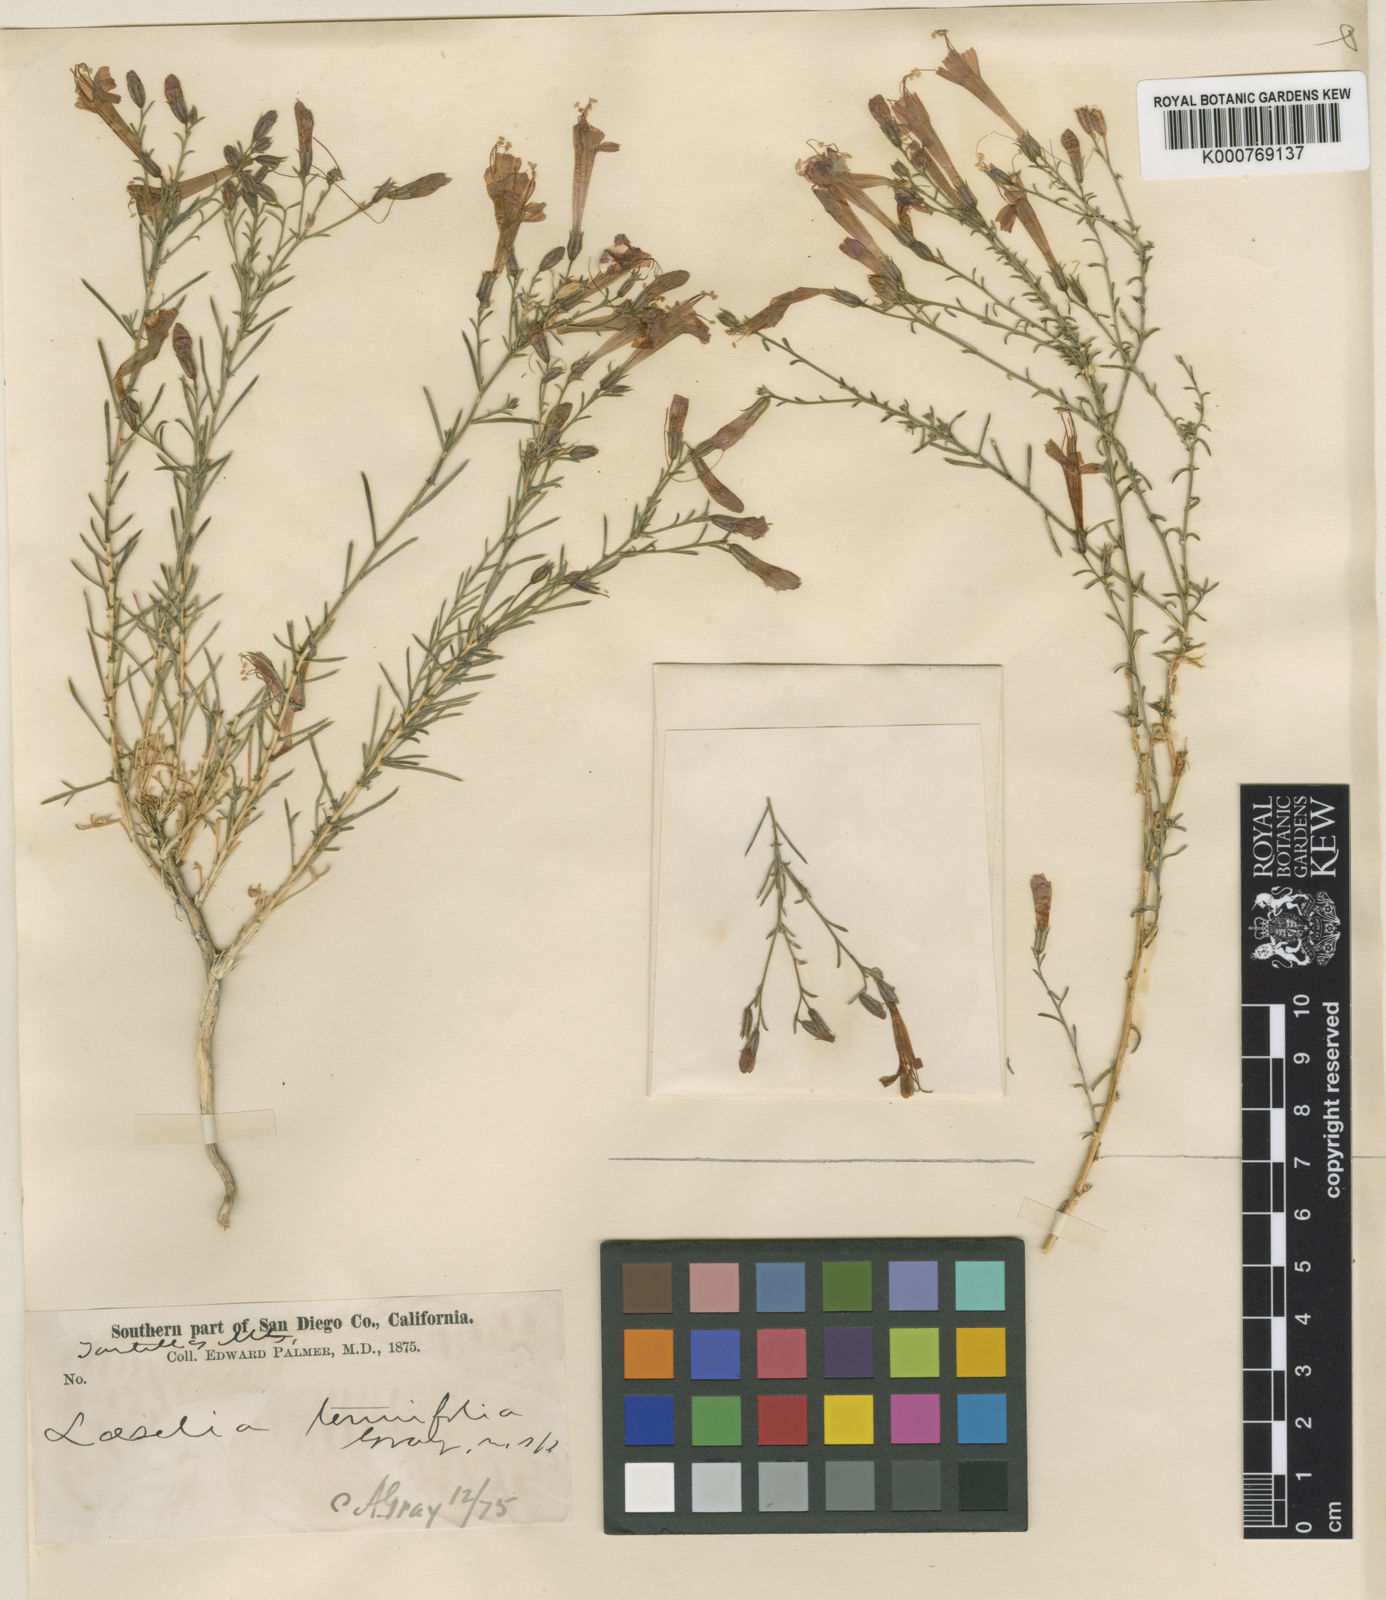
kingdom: Plantae
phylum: Tracheophyta
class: Magnoliopsida
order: Ericales
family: Polemoniaceae
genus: Ipomopsis
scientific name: Ipomopsis tenuifolia
